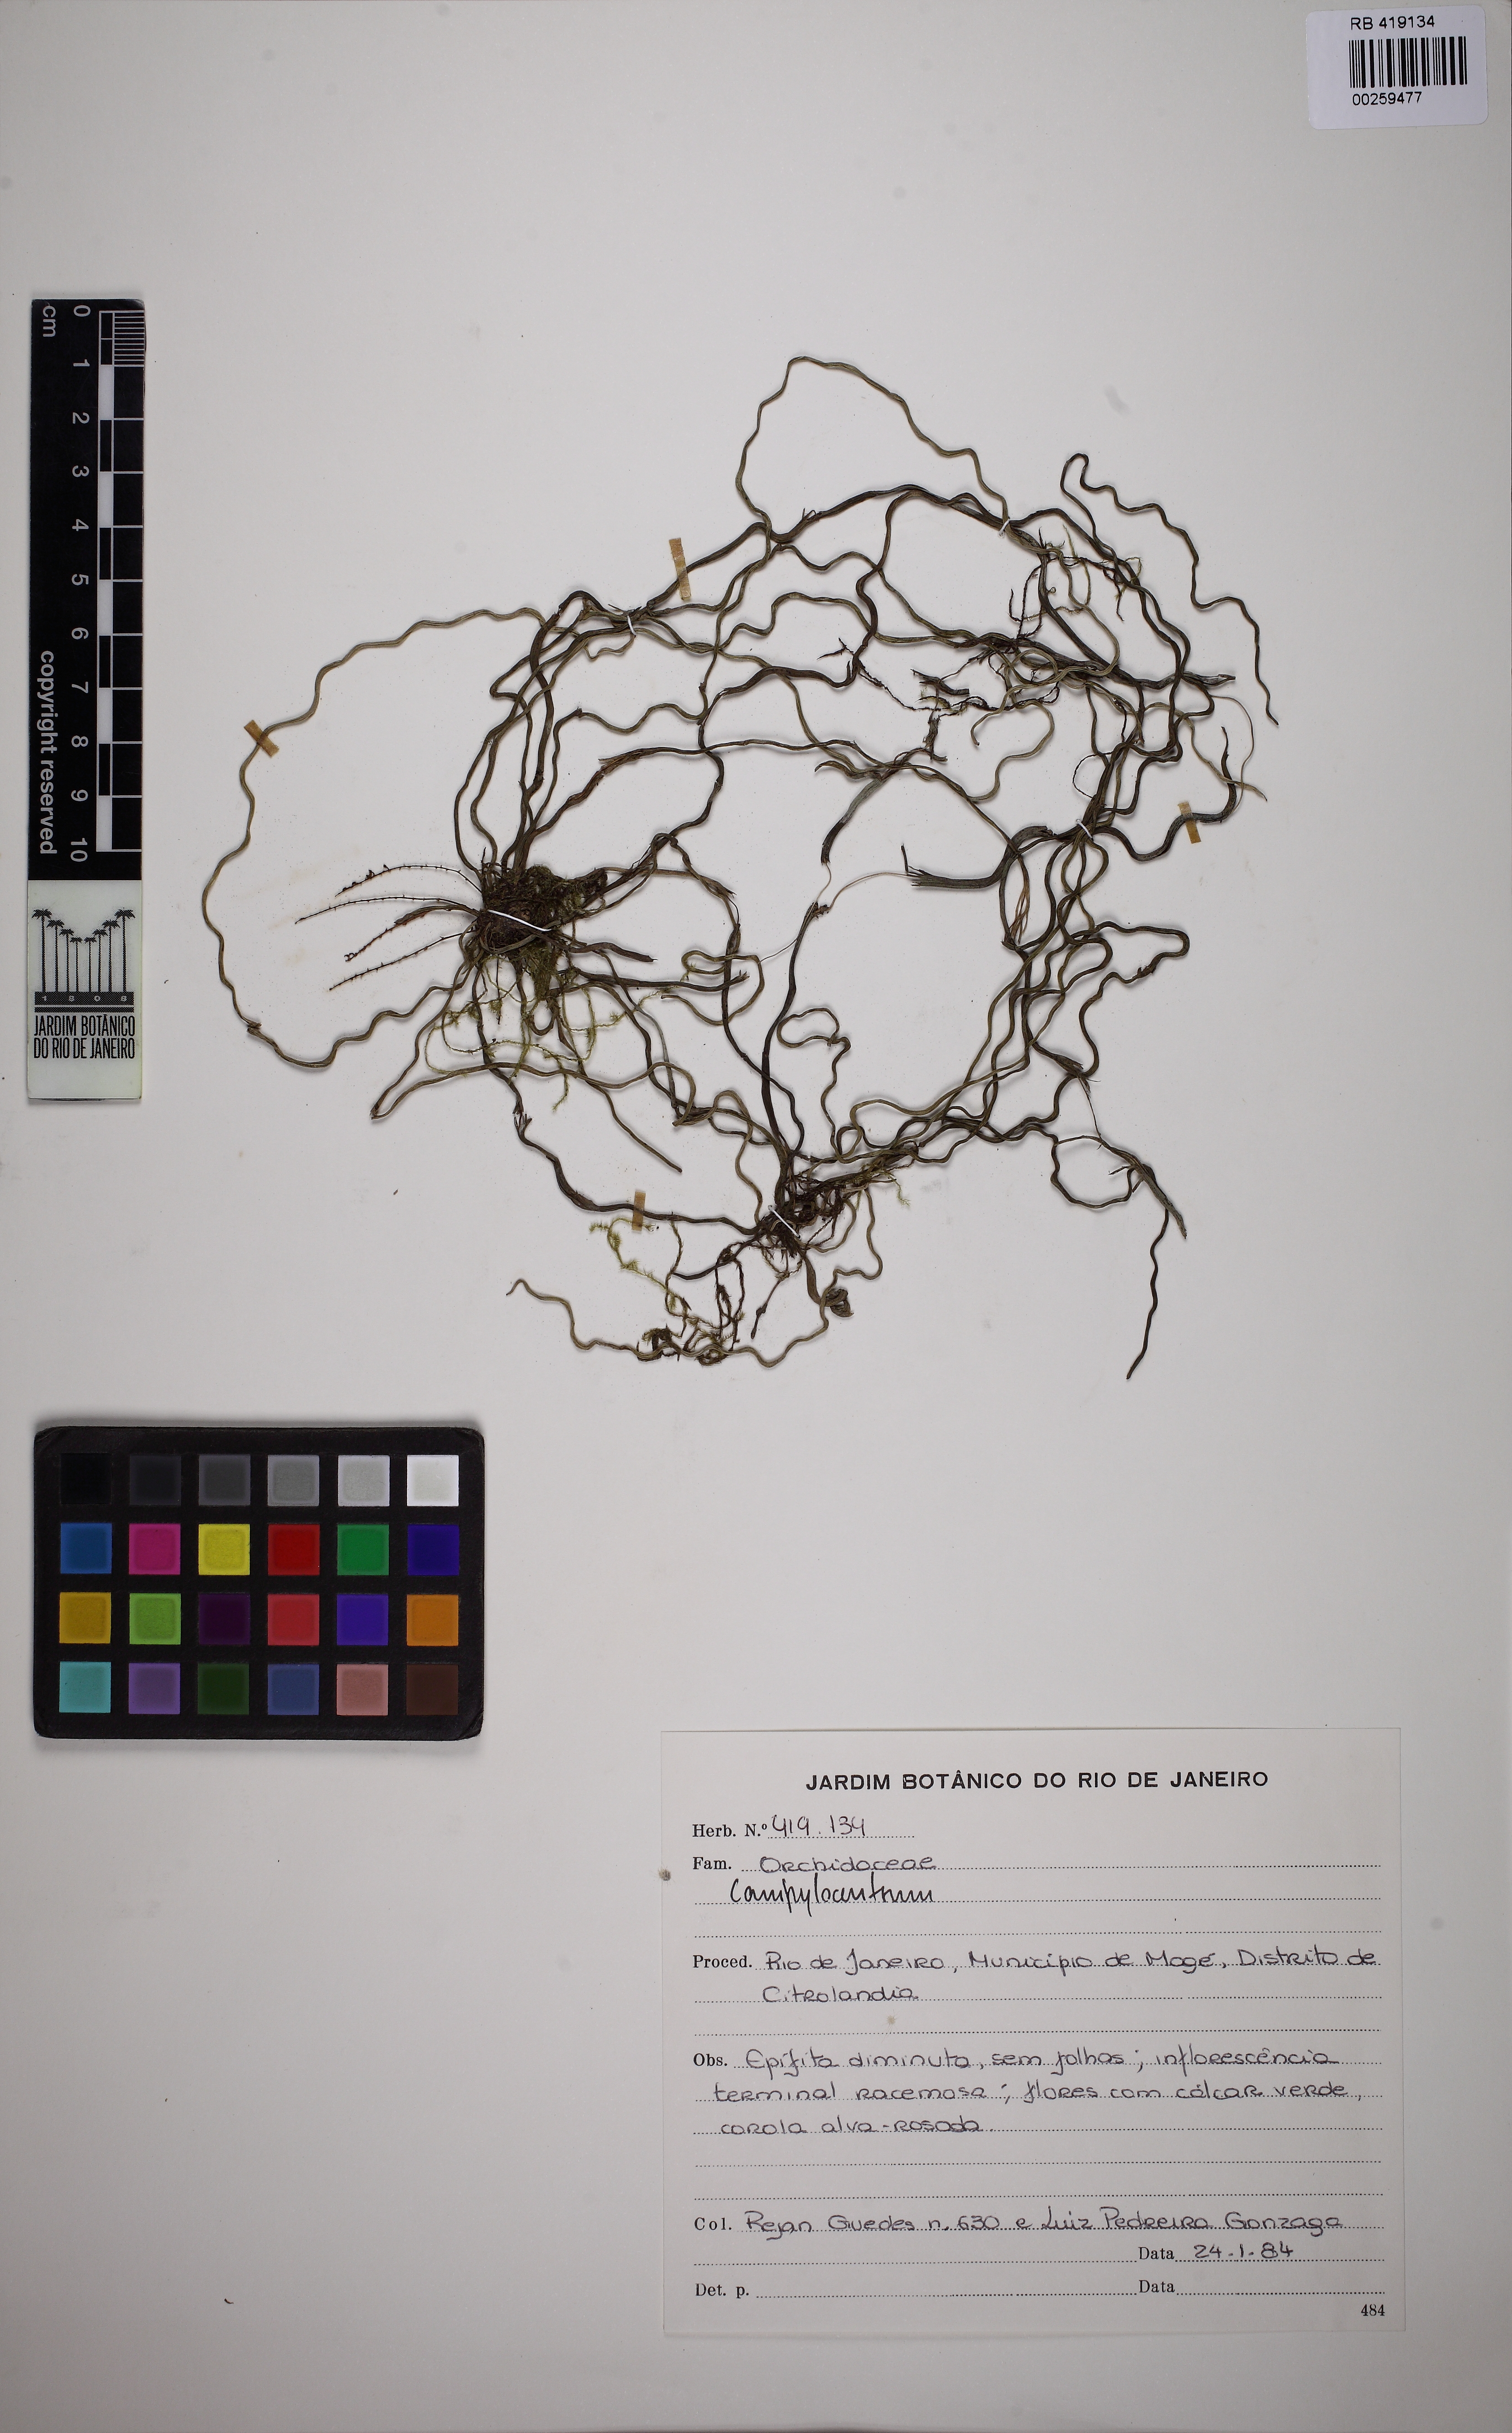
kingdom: Plantae
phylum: Tracheophyta
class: Liliopsida
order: Asparagales
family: Orchidaceae
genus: Campylocentrum
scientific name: Campylocentrum paludosum
